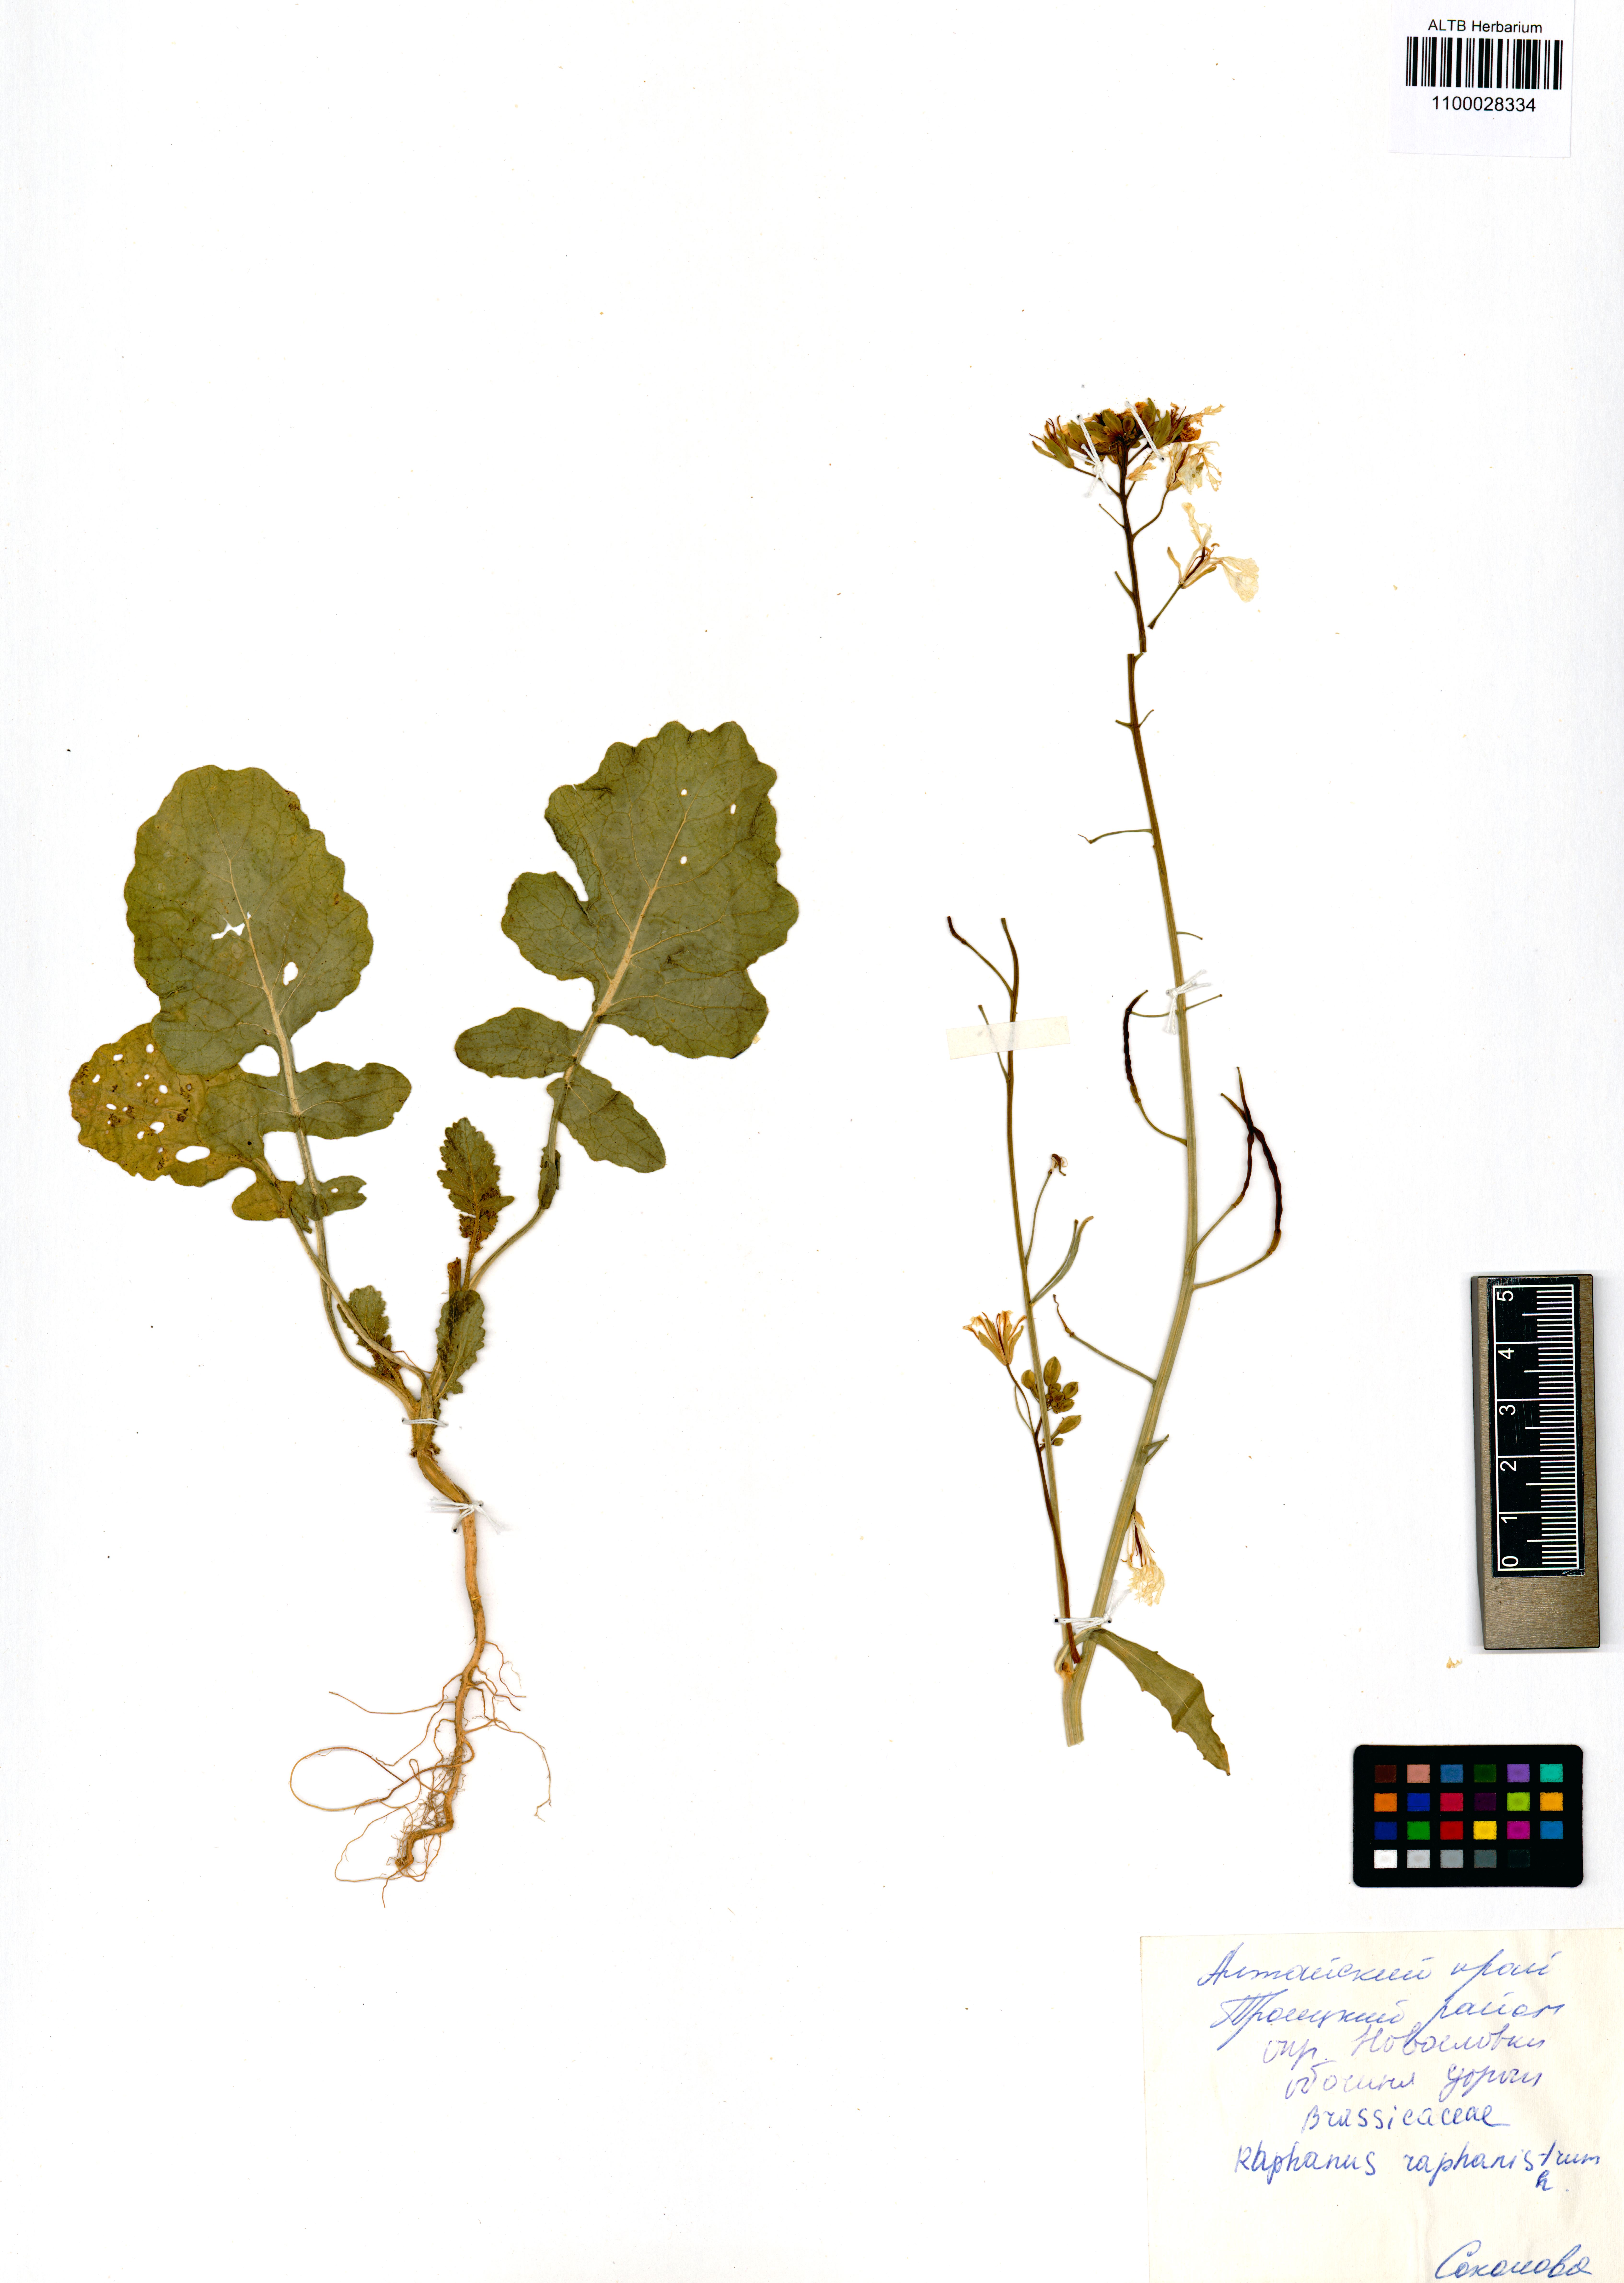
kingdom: Plantae
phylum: Tracheophyta
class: Magnoliopsida
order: Brassicales
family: Brassicaceae
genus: Raphanus
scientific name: Raphanus raphanistrum
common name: Wild radish
